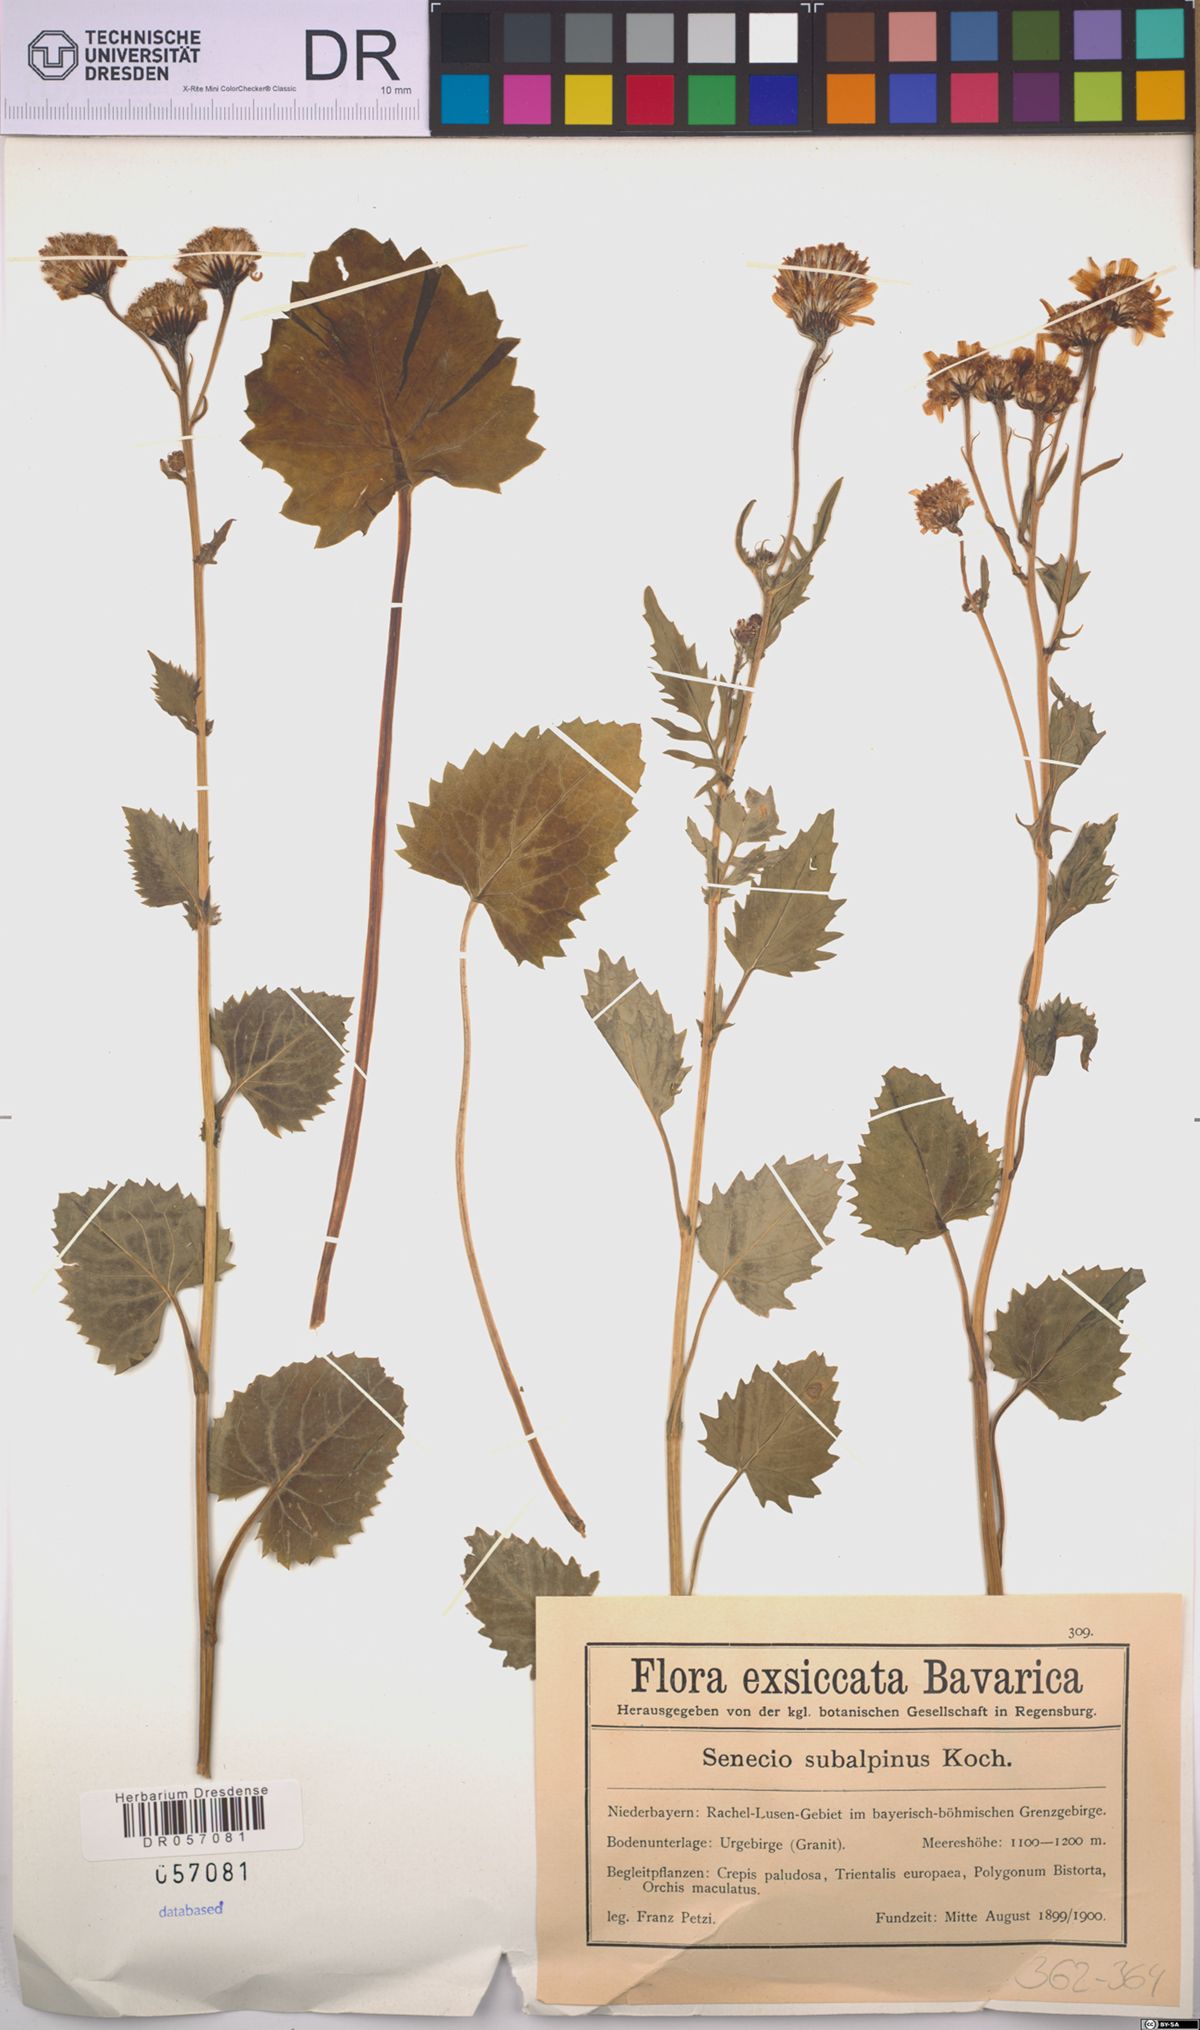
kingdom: Plantae
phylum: Tracheophyta
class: Magnoliopsida
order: Asterales
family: Asteraceae
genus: Jacobaea
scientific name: Jacobaea subalpina
